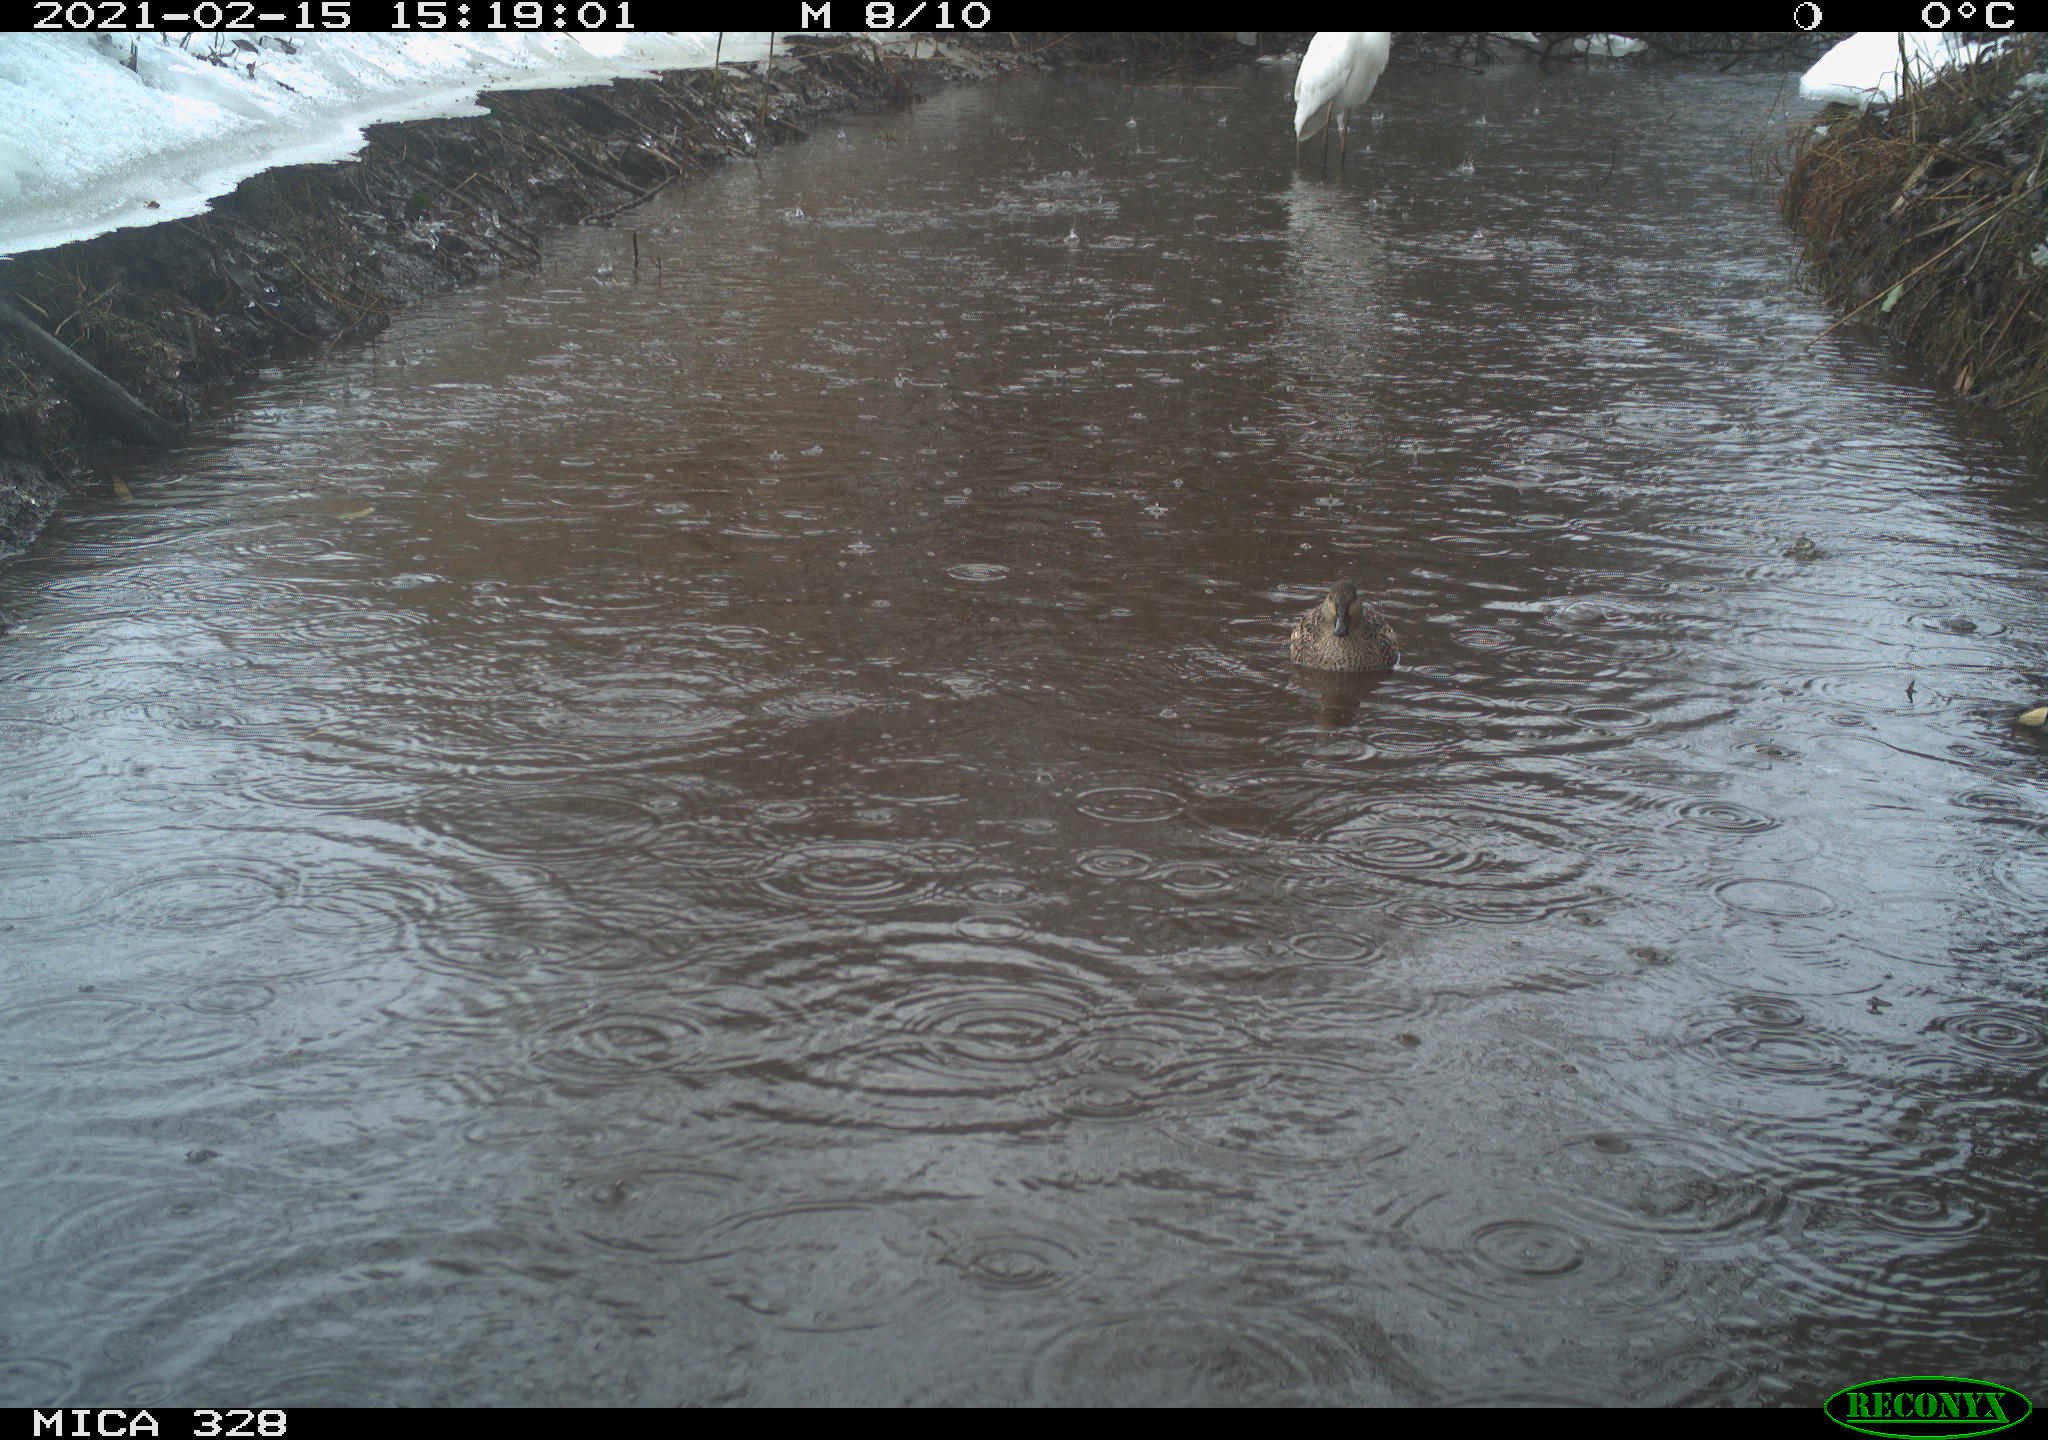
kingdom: Animalia
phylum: Chordata
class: Aves
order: Anseriformes
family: Anatidae
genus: Anas
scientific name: Anas
